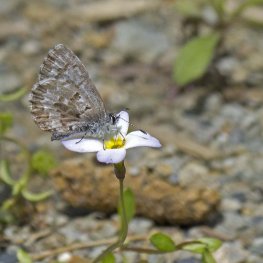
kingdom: Animalia
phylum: Arthropoda
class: Insecta
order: Lepidoptera
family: Lycaenidae
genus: Celastrina
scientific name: Celastrina lucia
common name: Northern Spring Azure
